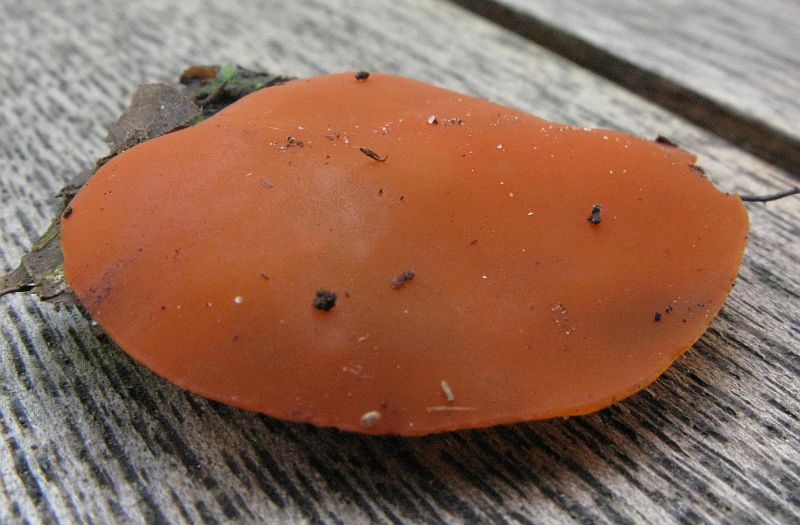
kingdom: Fungi
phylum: Ascomycota
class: Pezizomycetes
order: Pezizales
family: Pyronemataceae
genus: Aleuria
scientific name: Aleuria aurantia
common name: almindelig orangebæger
